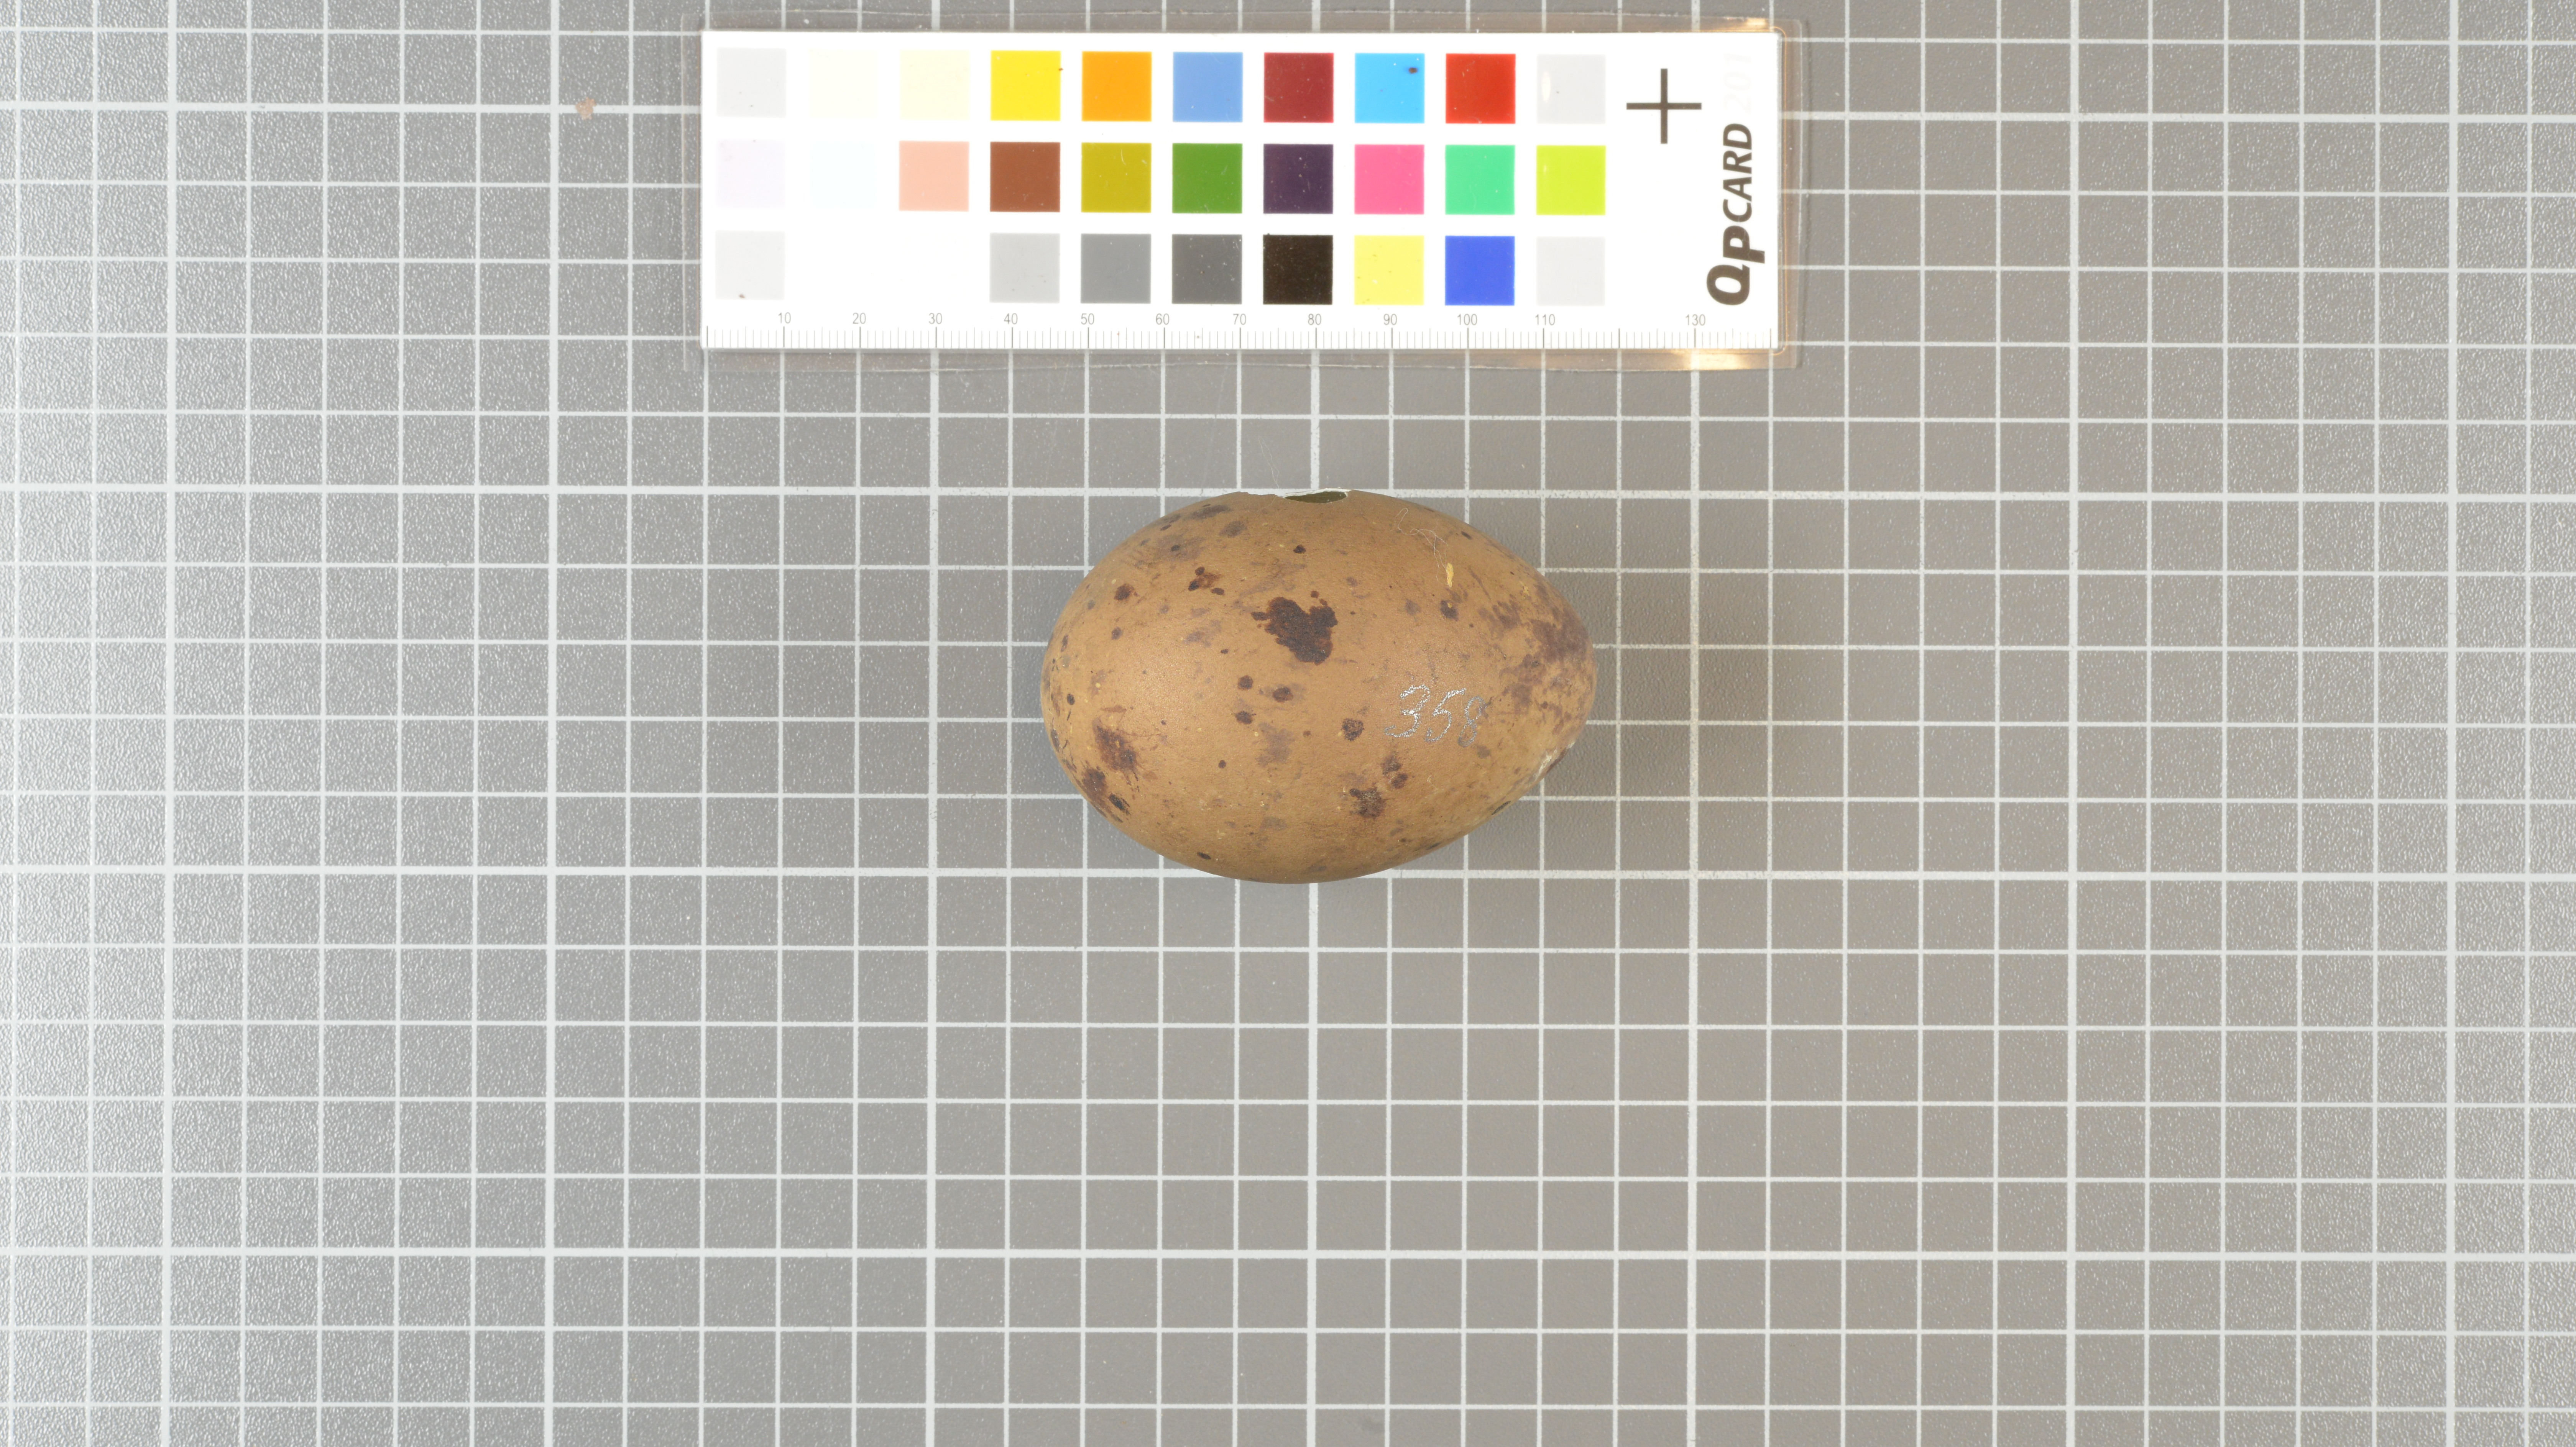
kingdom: Animalia
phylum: Chordata
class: Aves
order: Charadriiformes
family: Stercorariidae
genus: Stercorarius
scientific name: Stercorarius antarcticus
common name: Brown skua
